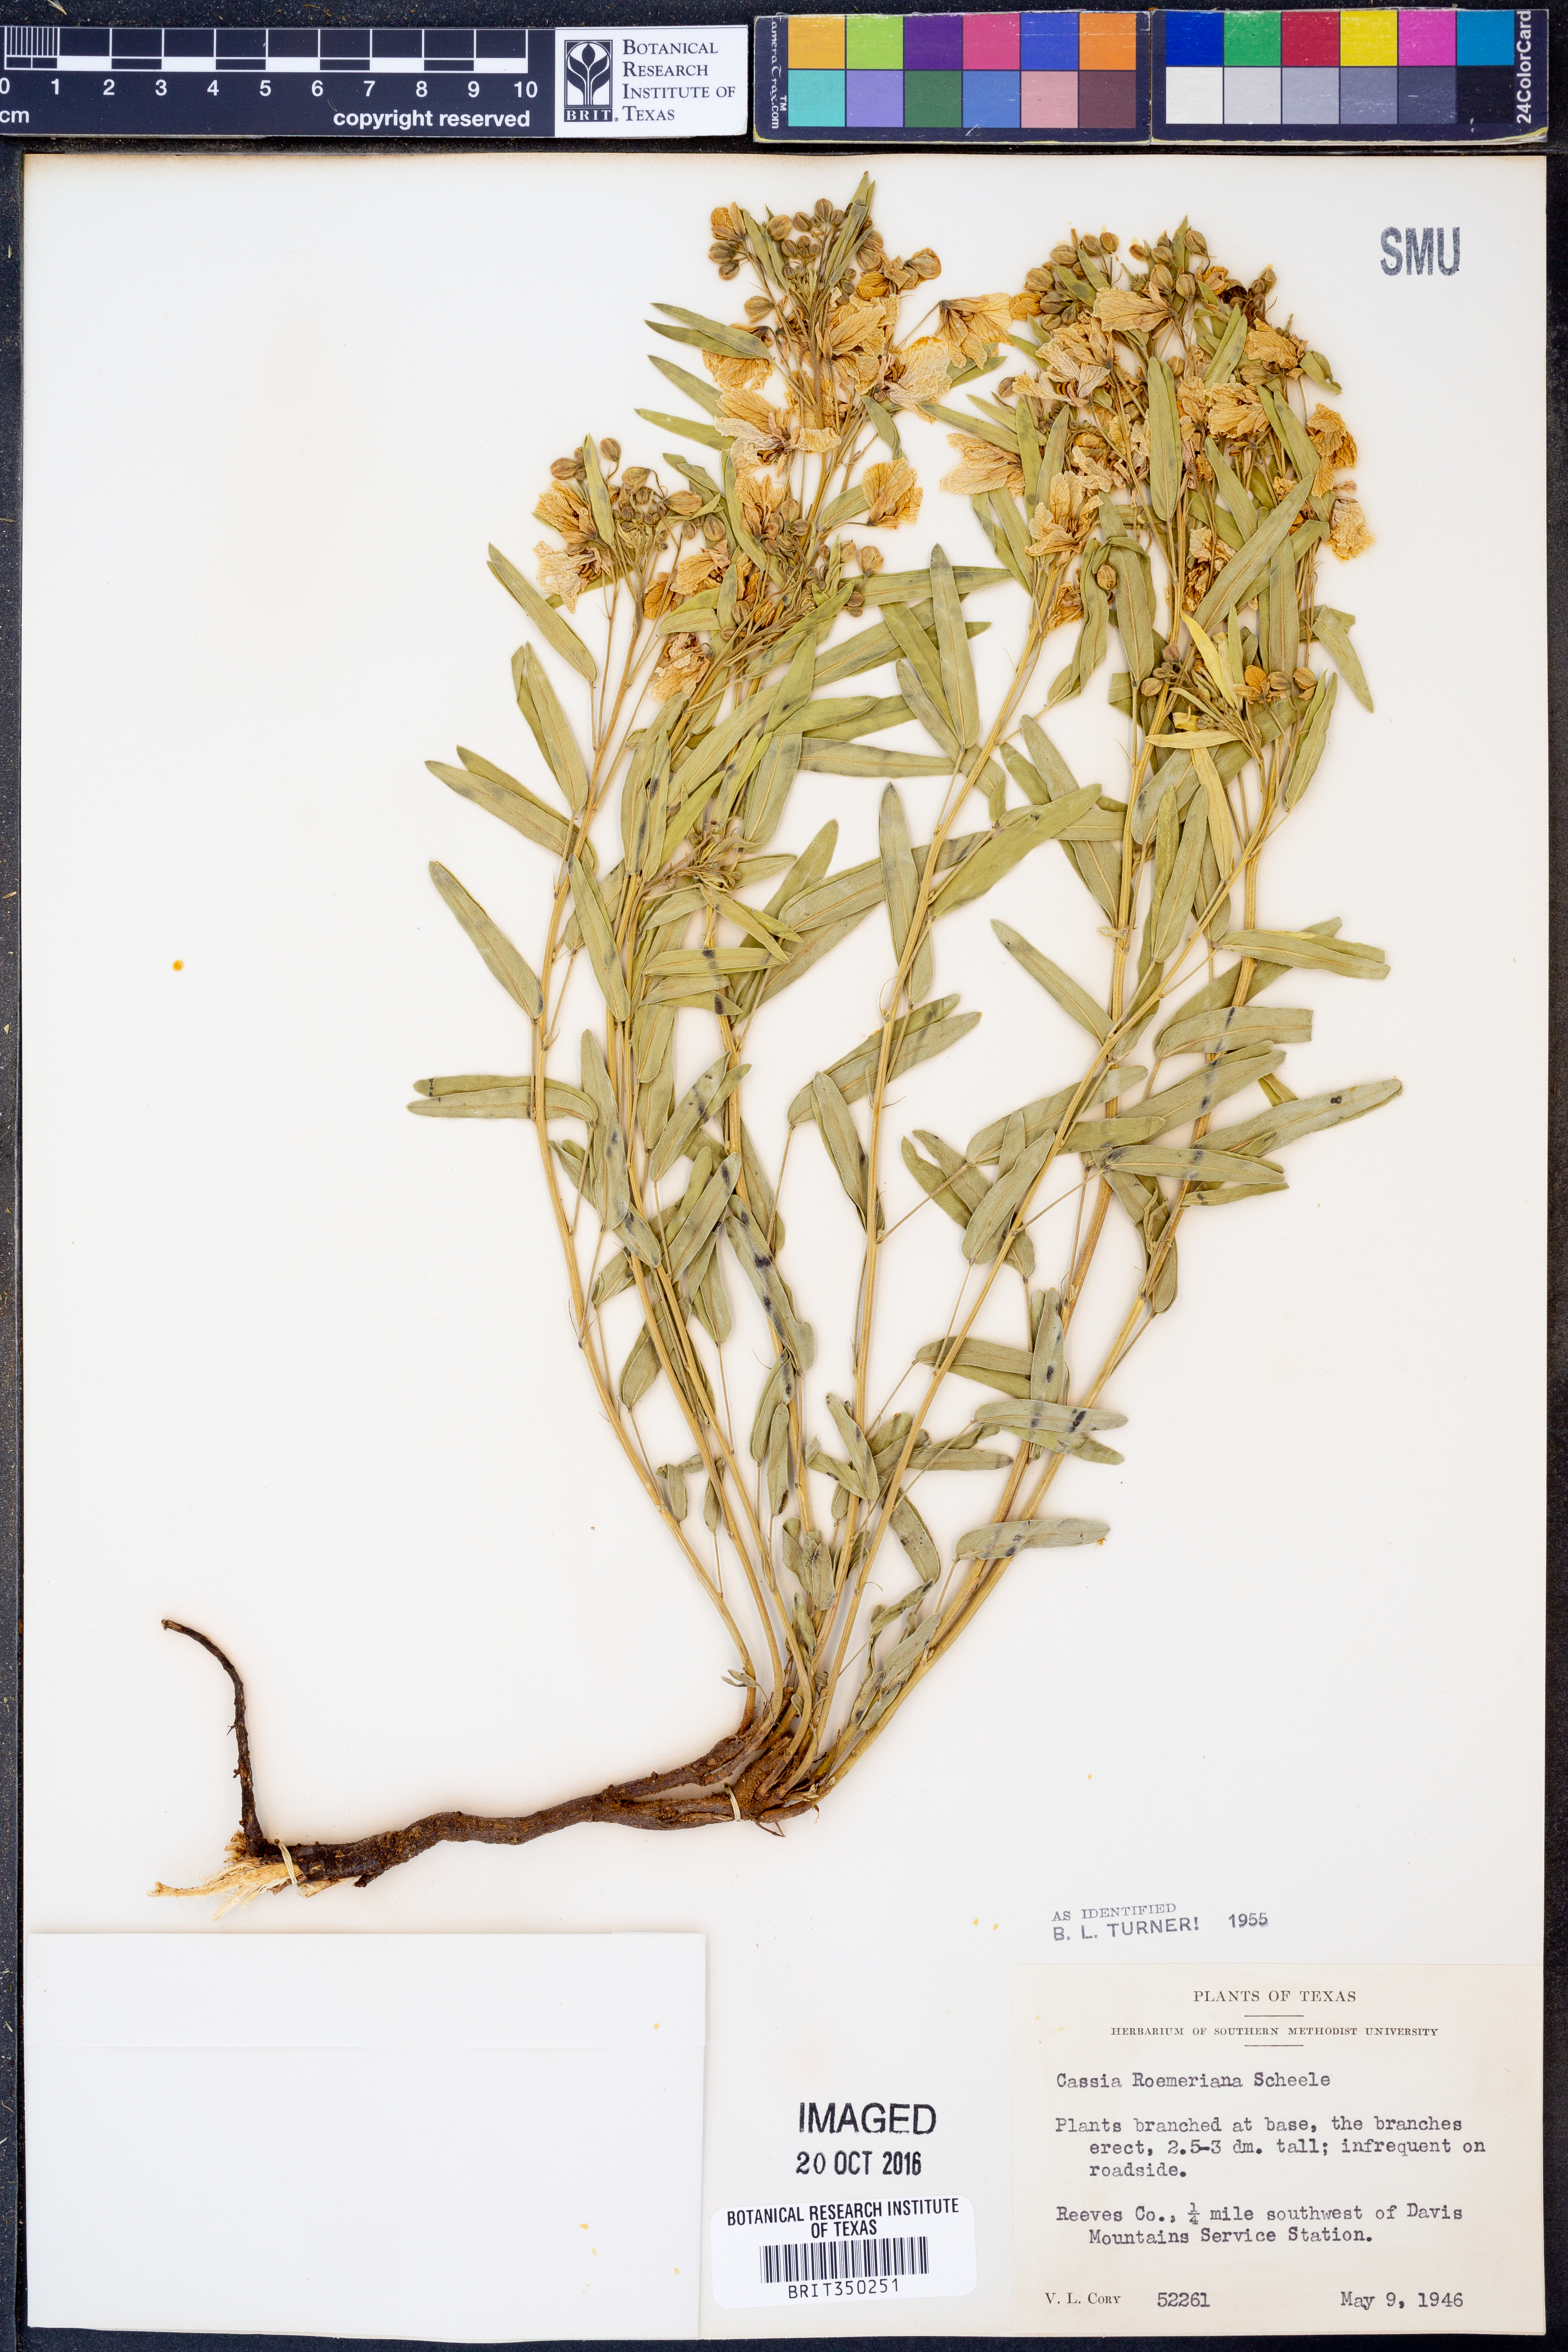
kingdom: Plantae
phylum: Tracheophyta
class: Magnoliopsida
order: Fabales
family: Fabaceae
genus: Senna
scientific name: Senna roemeriana
